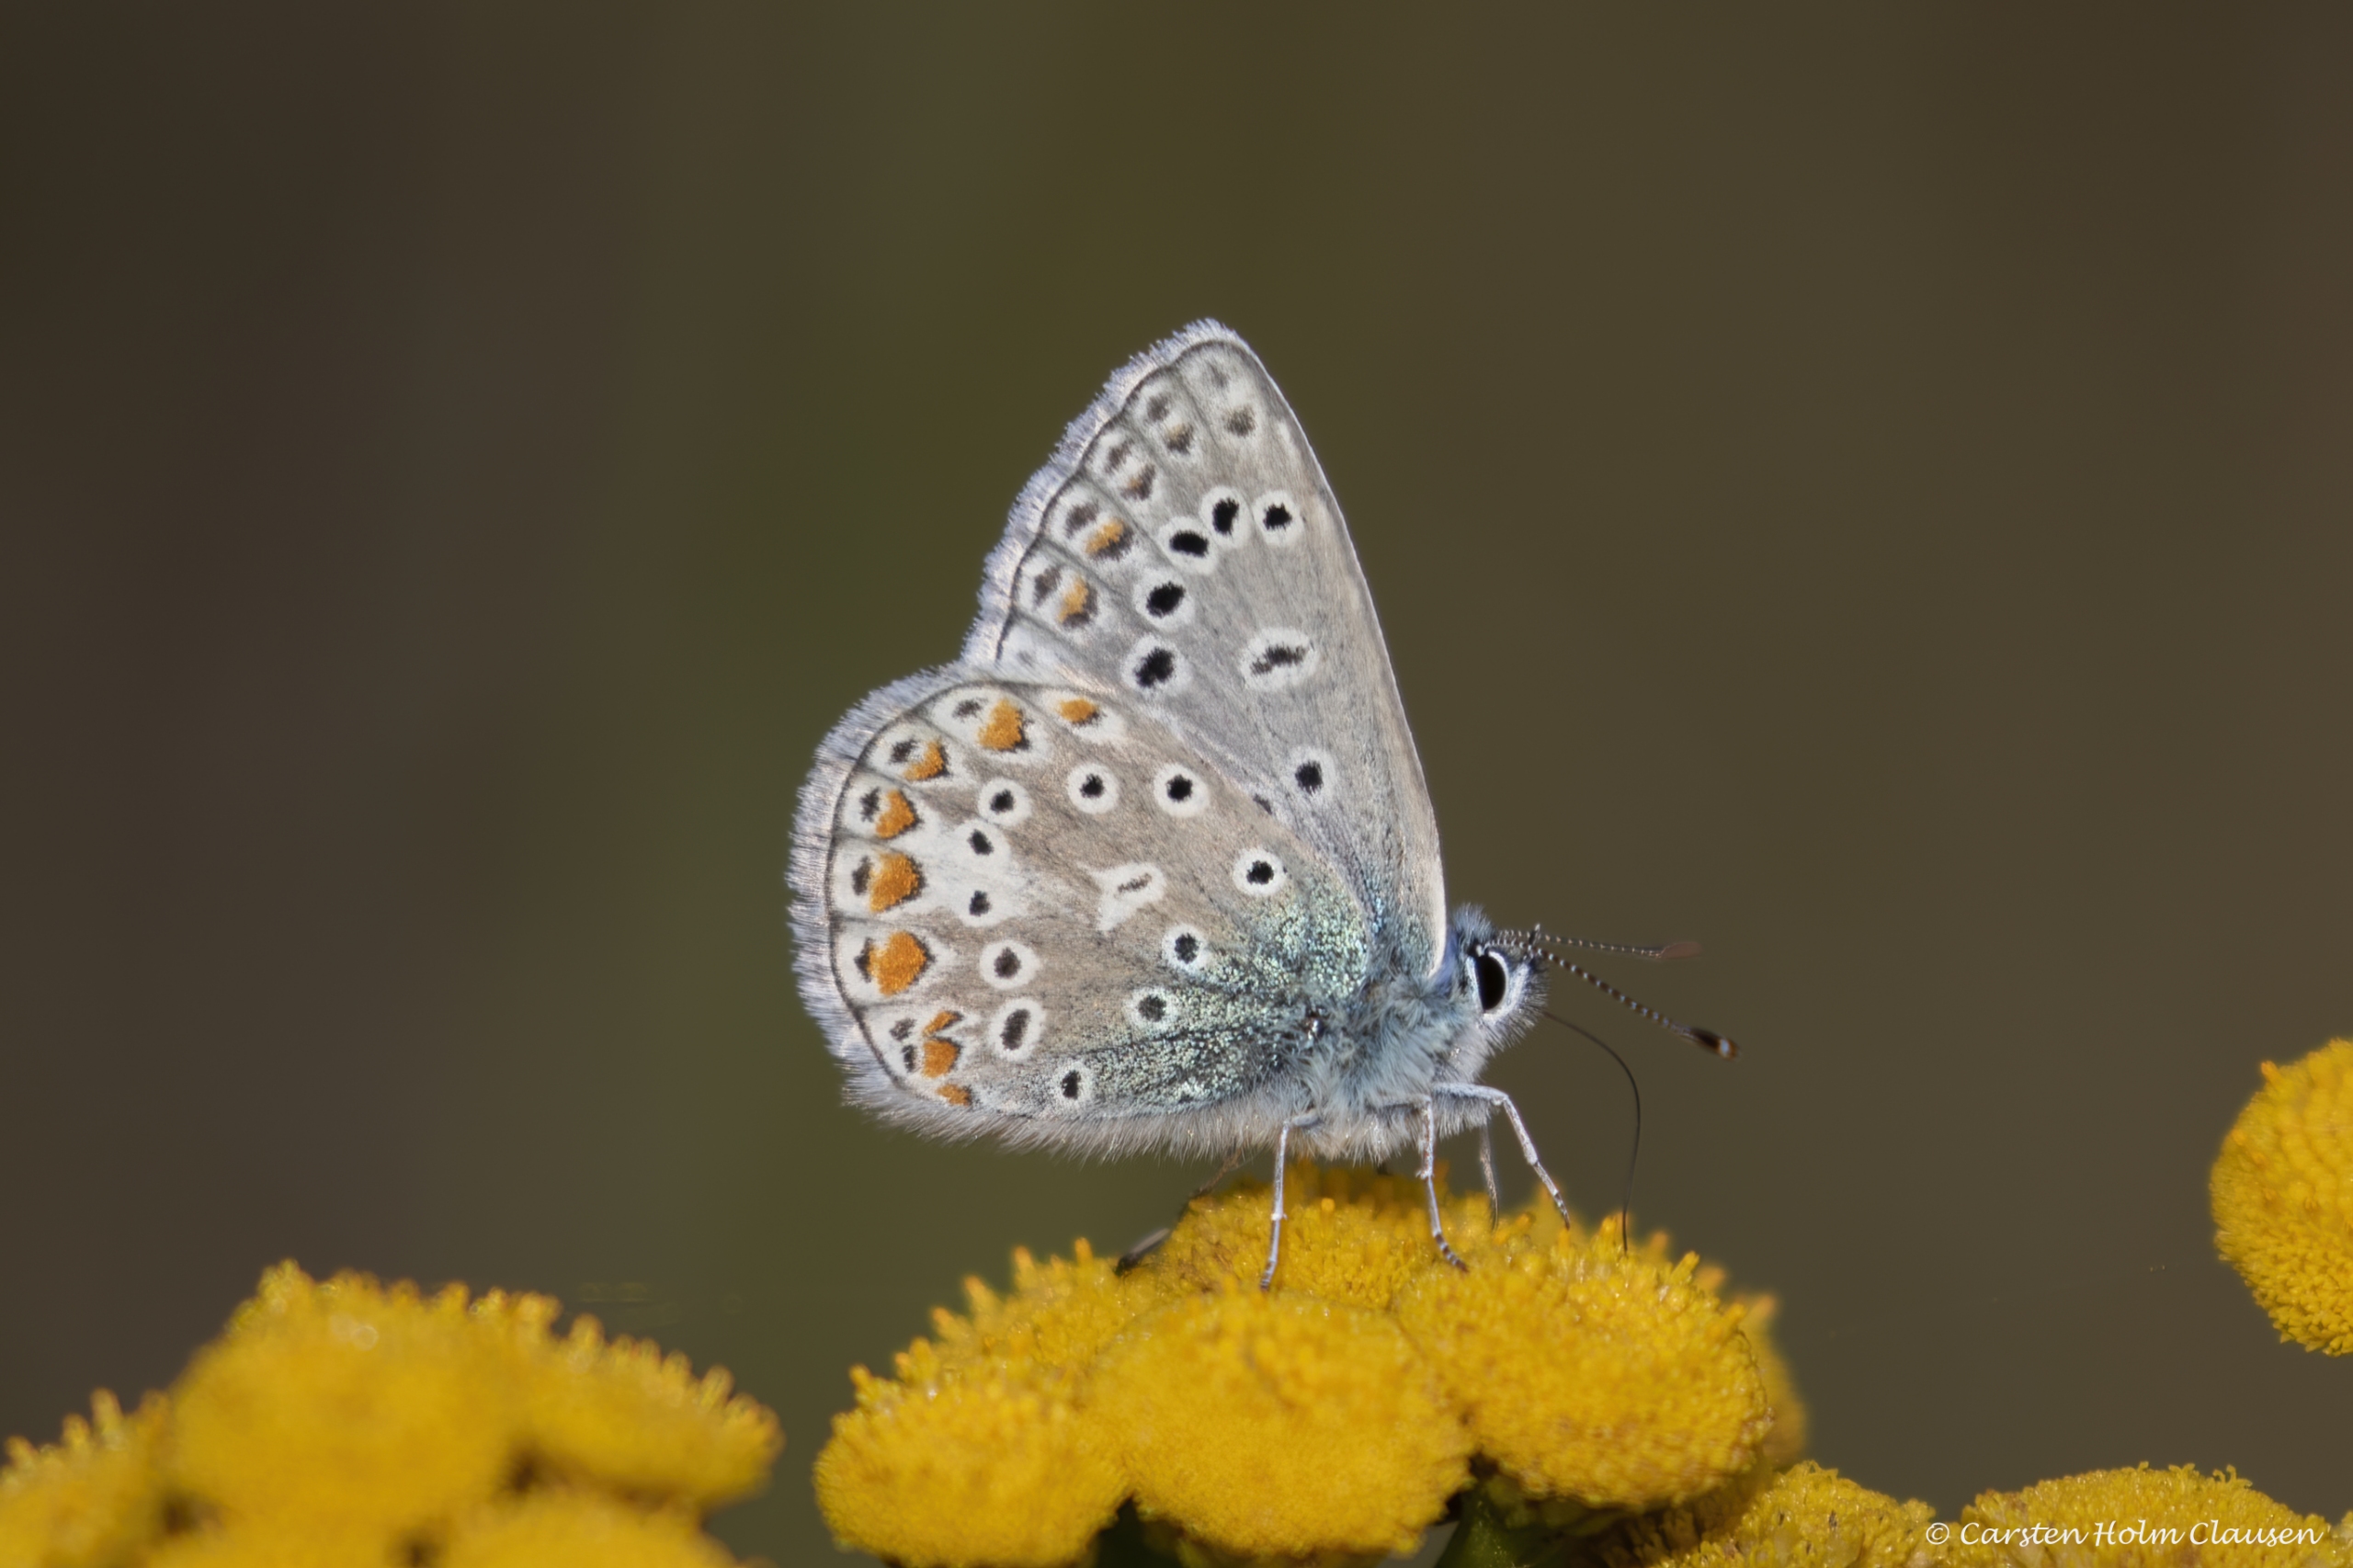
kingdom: Animalia
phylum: Arthropoda
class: Insecta
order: Lepidoptera
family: Lycaenidae
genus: Polyommatus
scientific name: Polyommatus icarus
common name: Almindelig blåfugl
